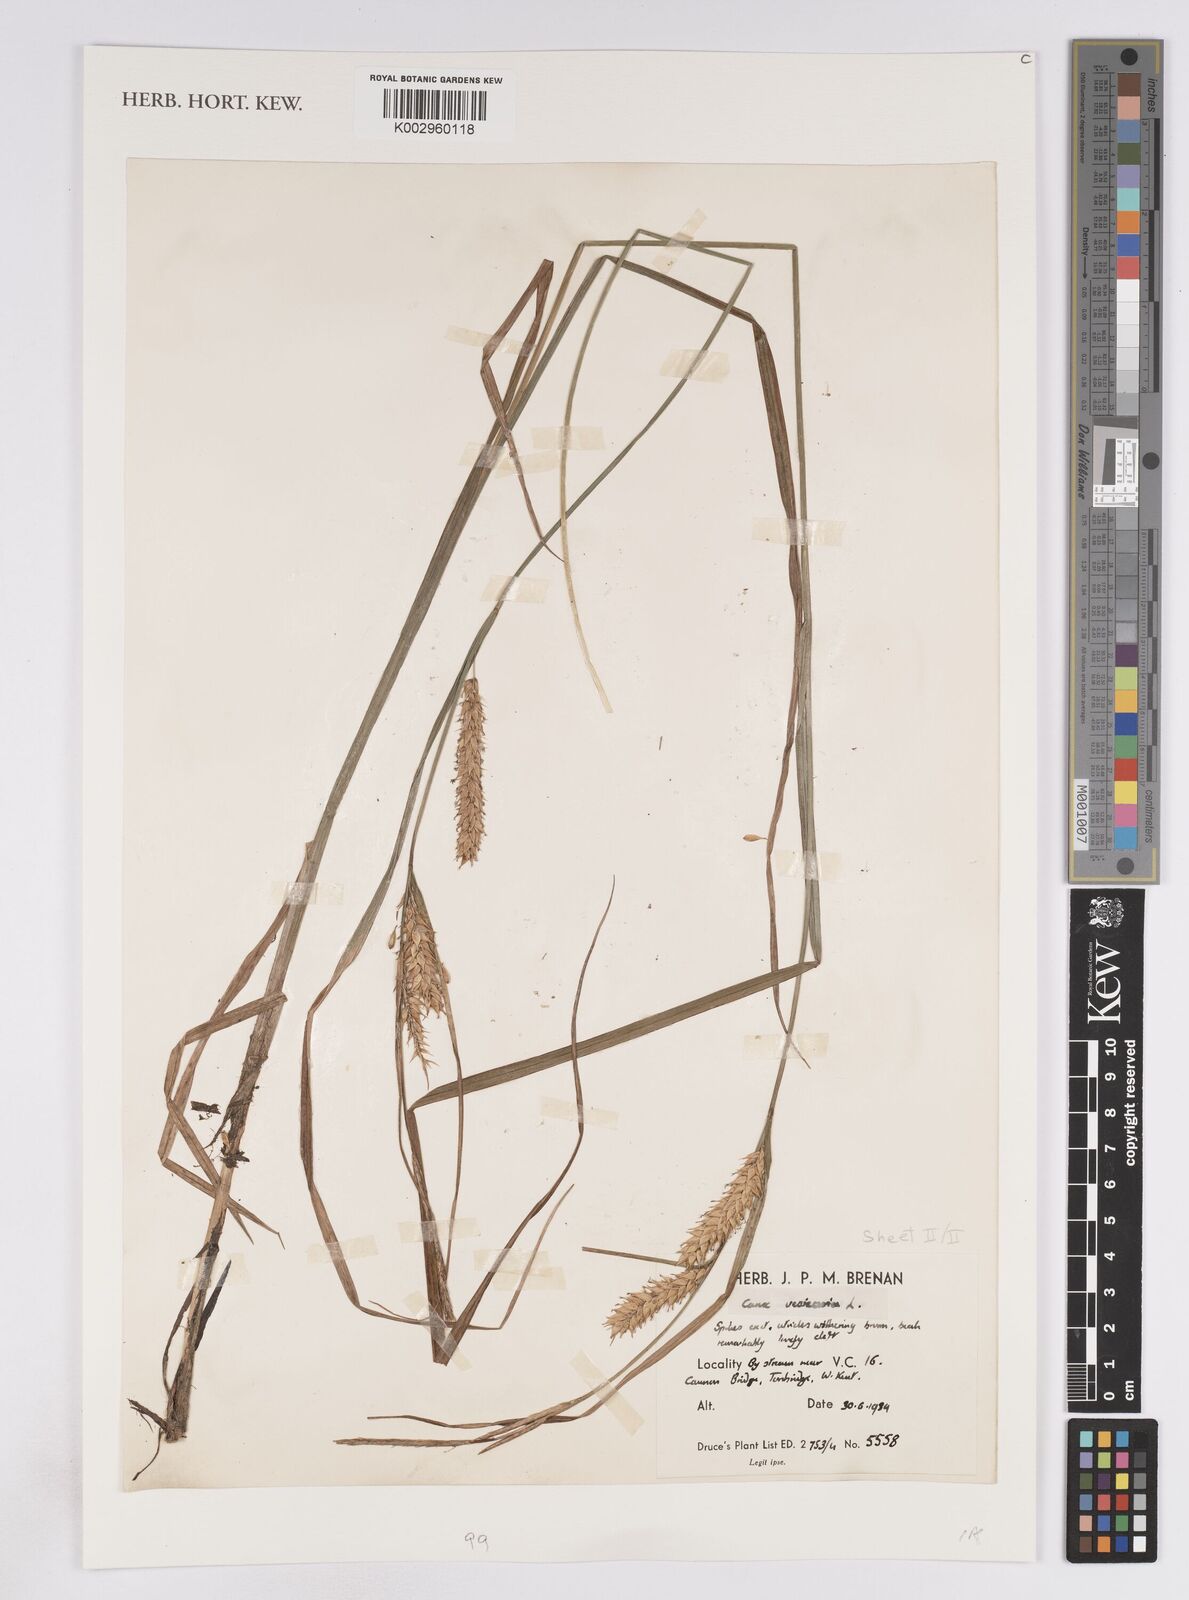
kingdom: Plantae
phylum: Tracheophyta
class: Liliopsida
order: Poales
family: Cyperaceae
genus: Carex
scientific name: Carex vesicaria
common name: Bladder-sedge
